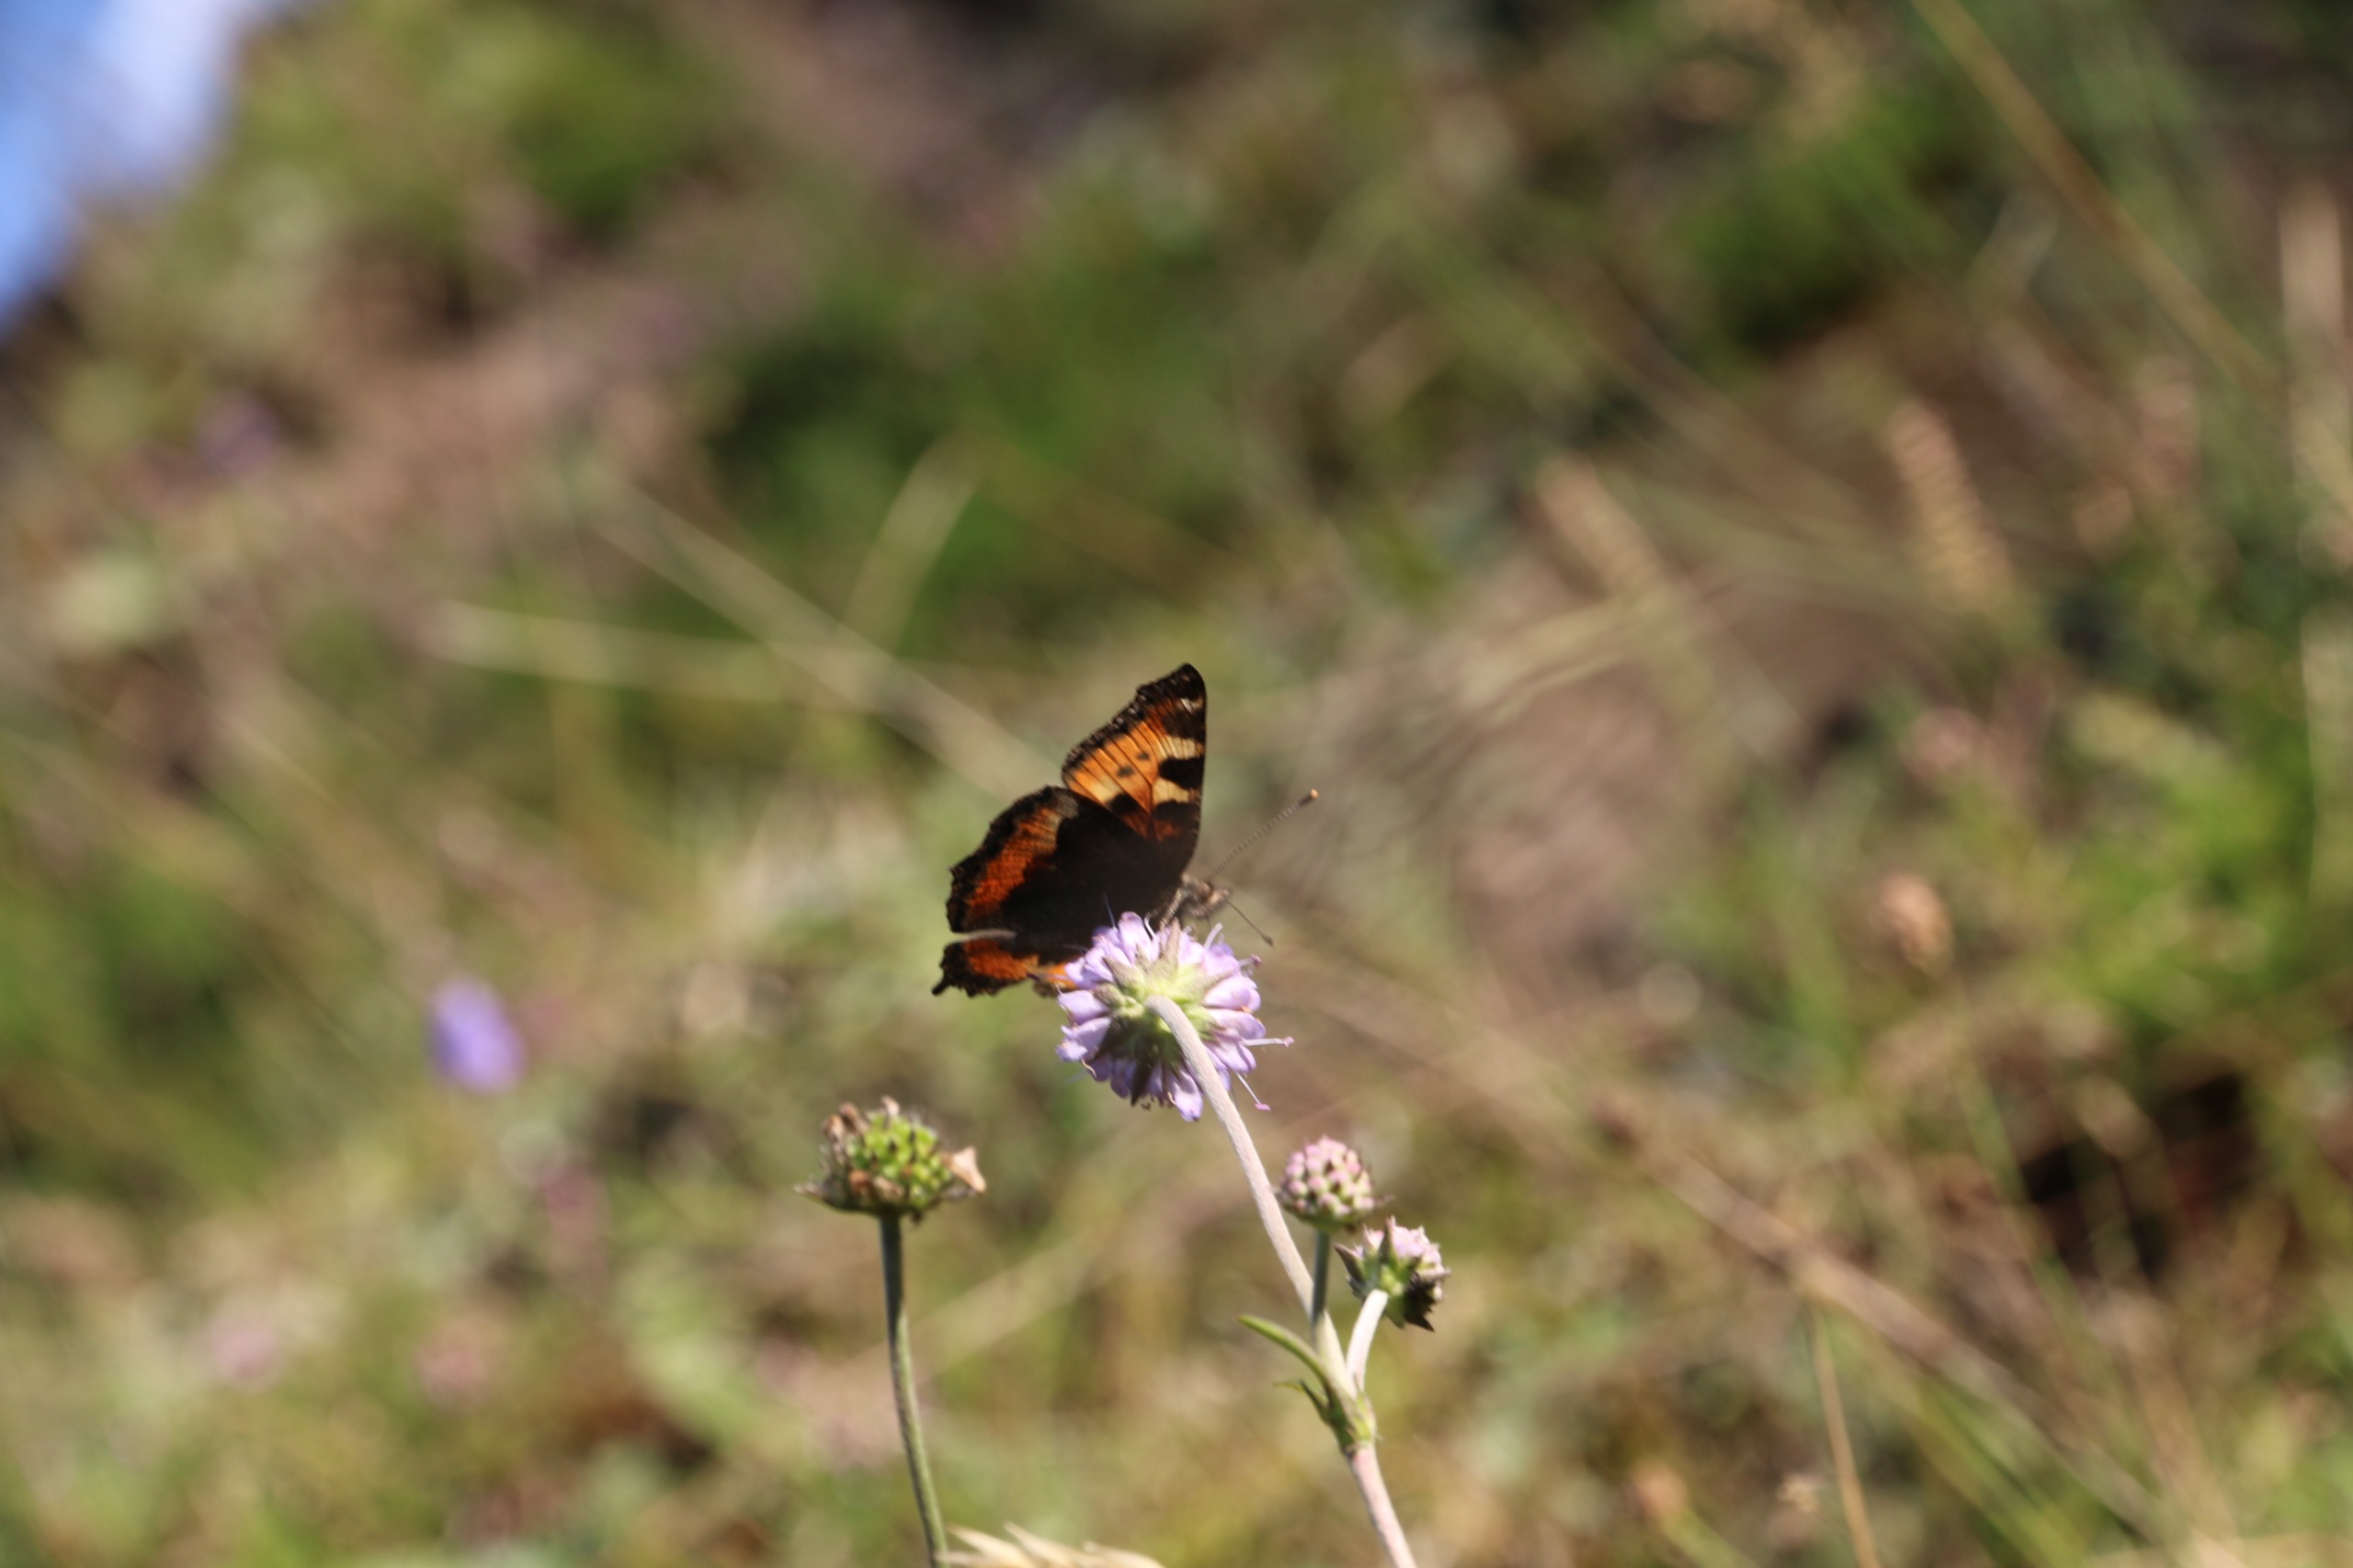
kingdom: Animalia
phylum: Arthropoda
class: Insecta
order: Lepidoptera
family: Nymphalidae
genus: Aglais
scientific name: Aglais urticae
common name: Nældens takvinge
